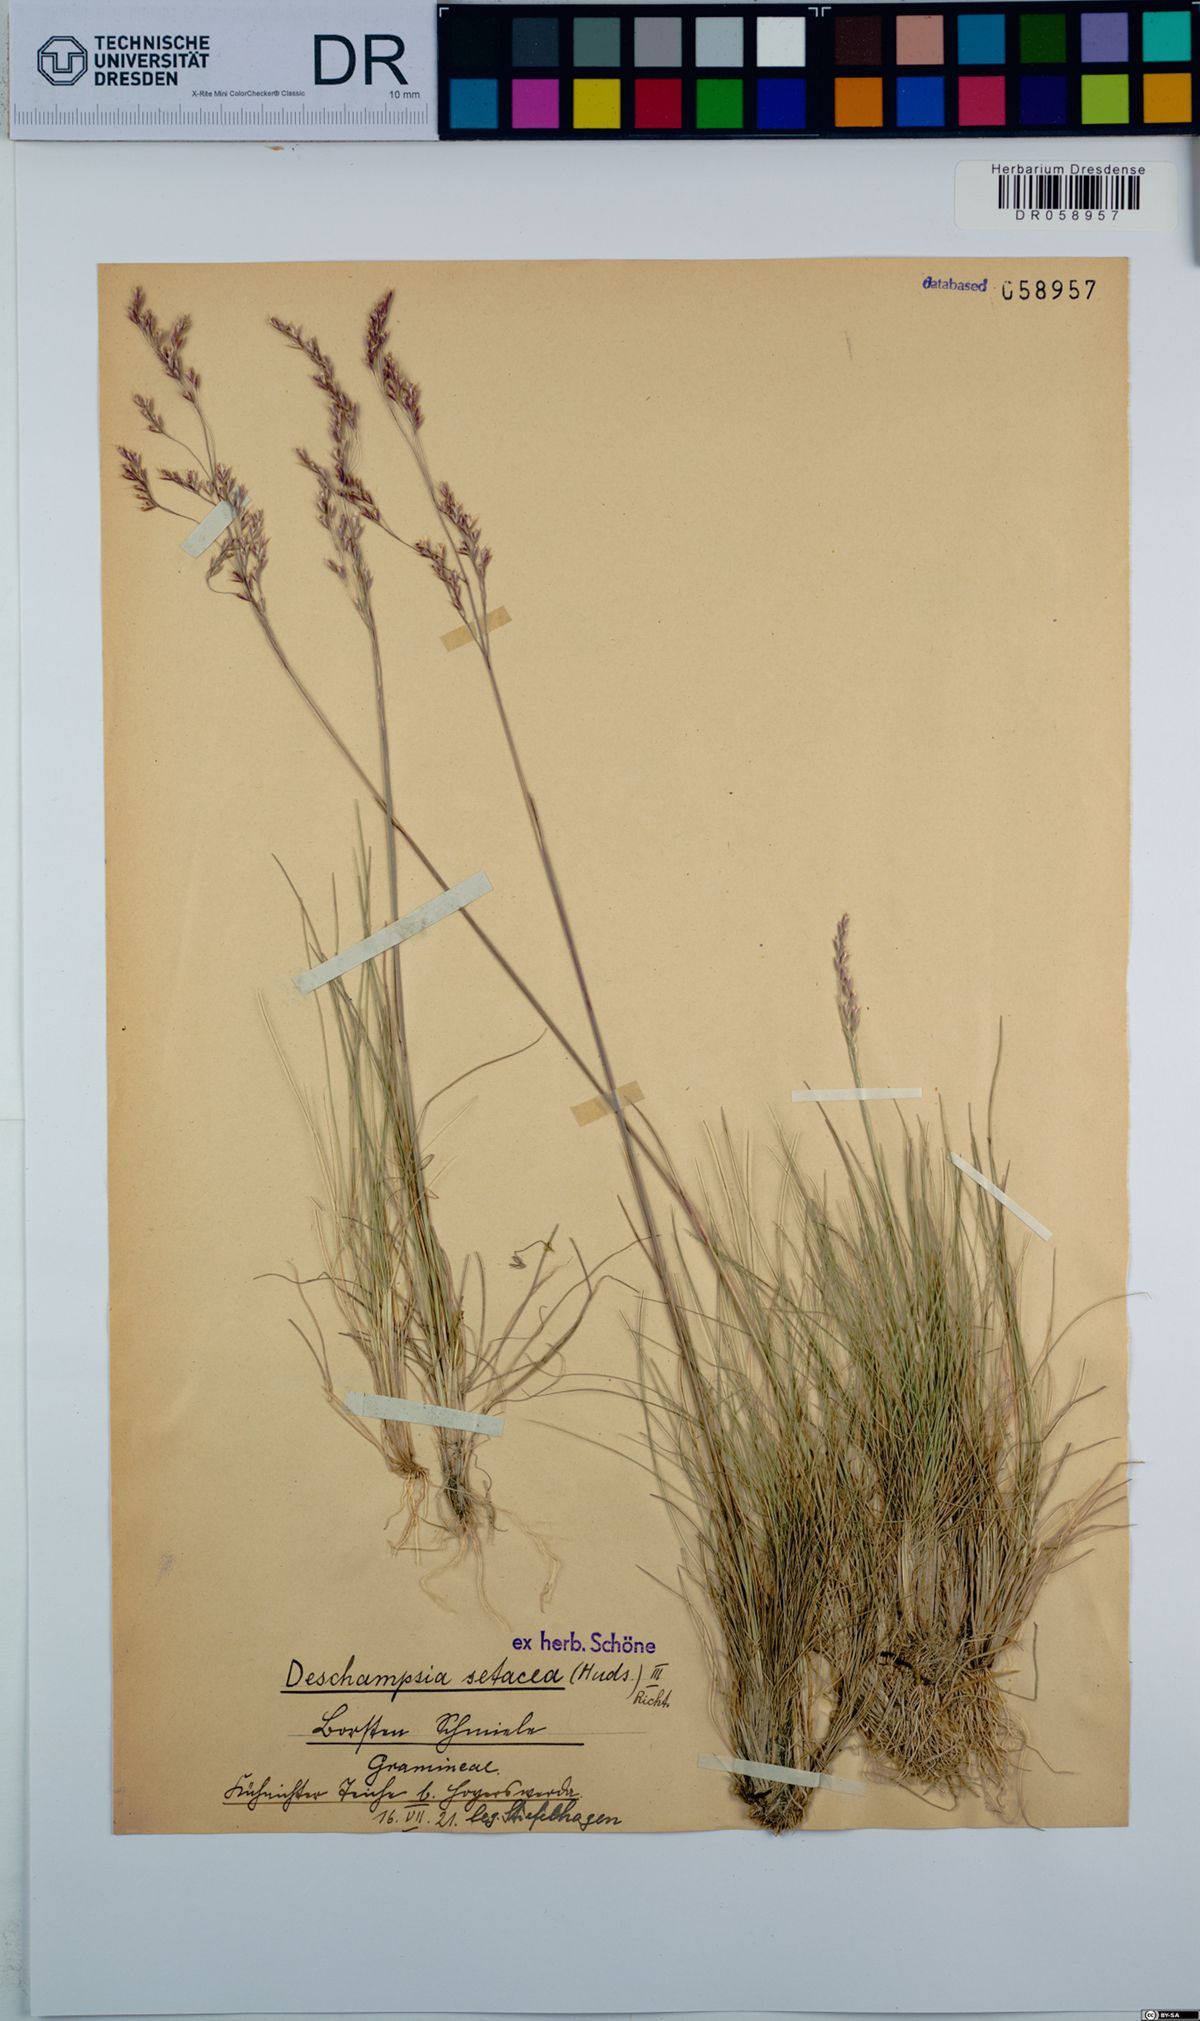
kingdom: Plantae
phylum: Tracheophyta
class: Liliopsida
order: Poales
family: Poaceae
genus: Deschampsia
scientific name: Deschampsia setacea
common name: Bog hair-grass
